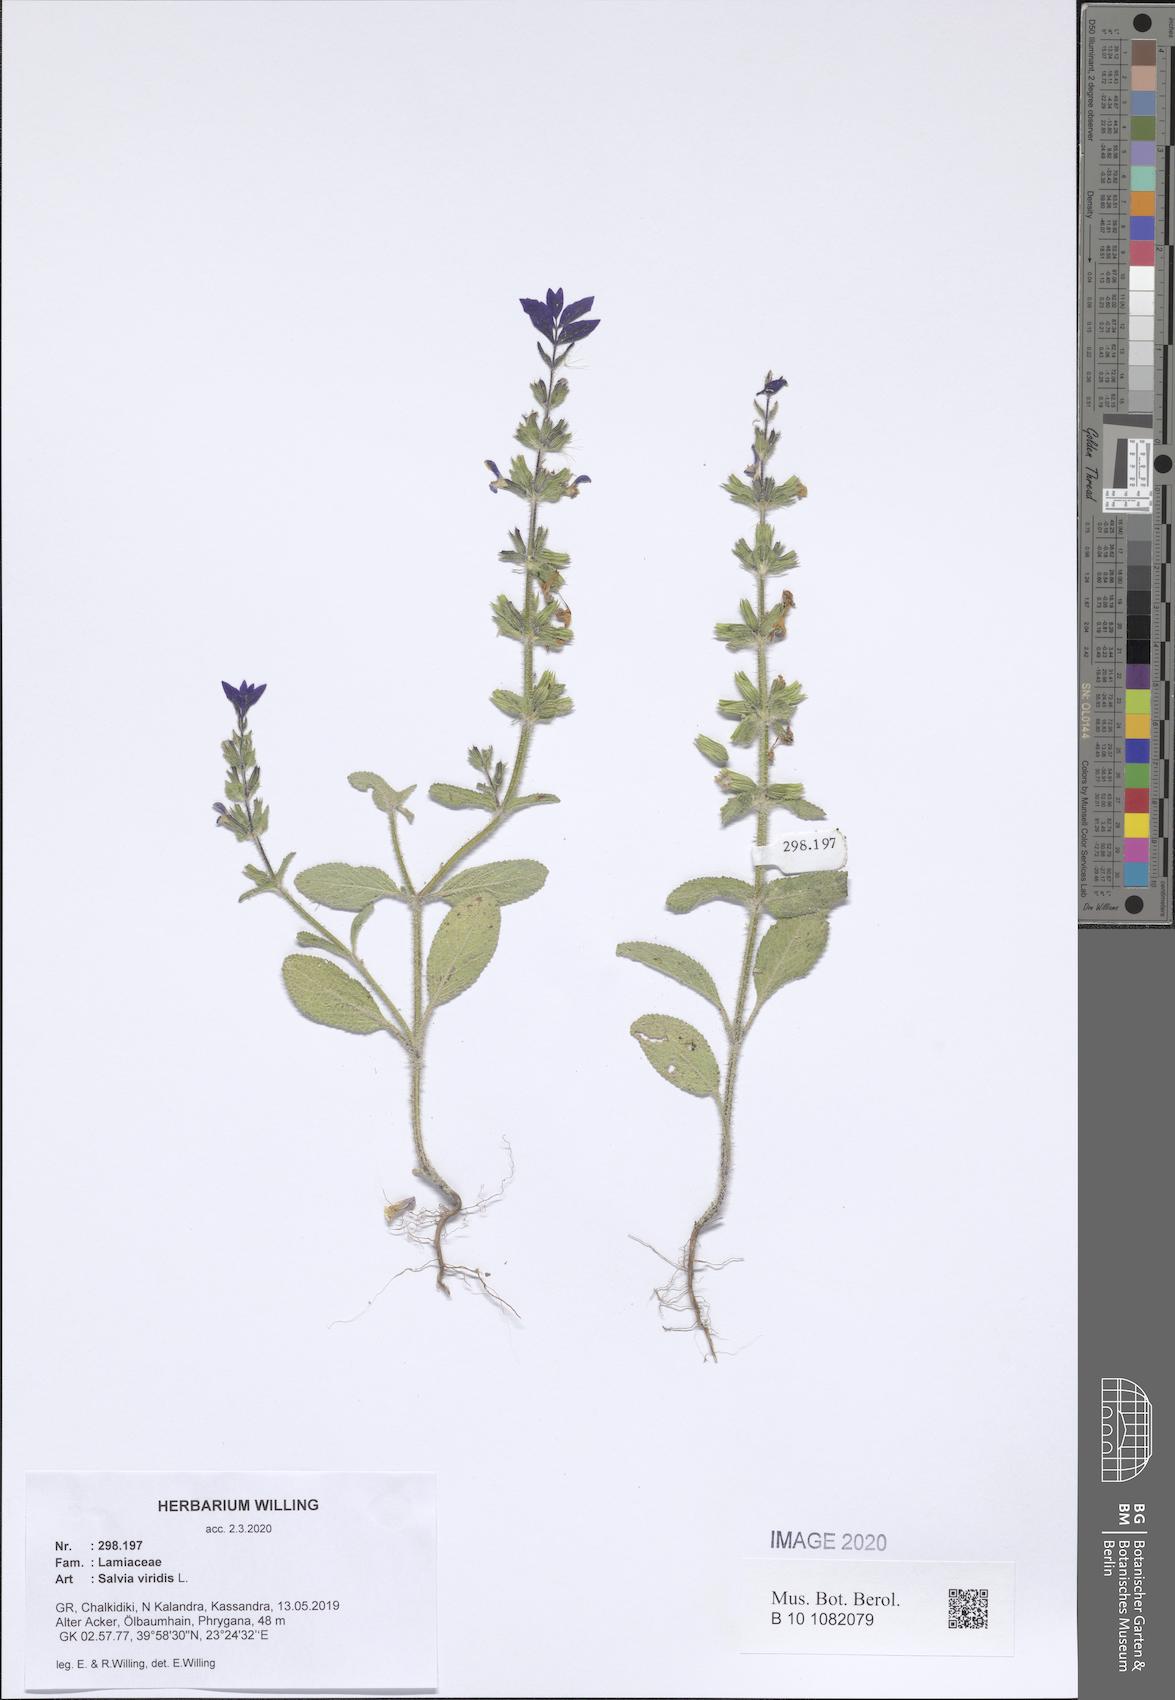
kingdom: Plantae
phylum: Tracheophyta
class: Magnoliopsida
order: Lamiales
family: Lamiaceae
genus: Salvia
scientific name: Salvia viridis
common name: Annual clary
